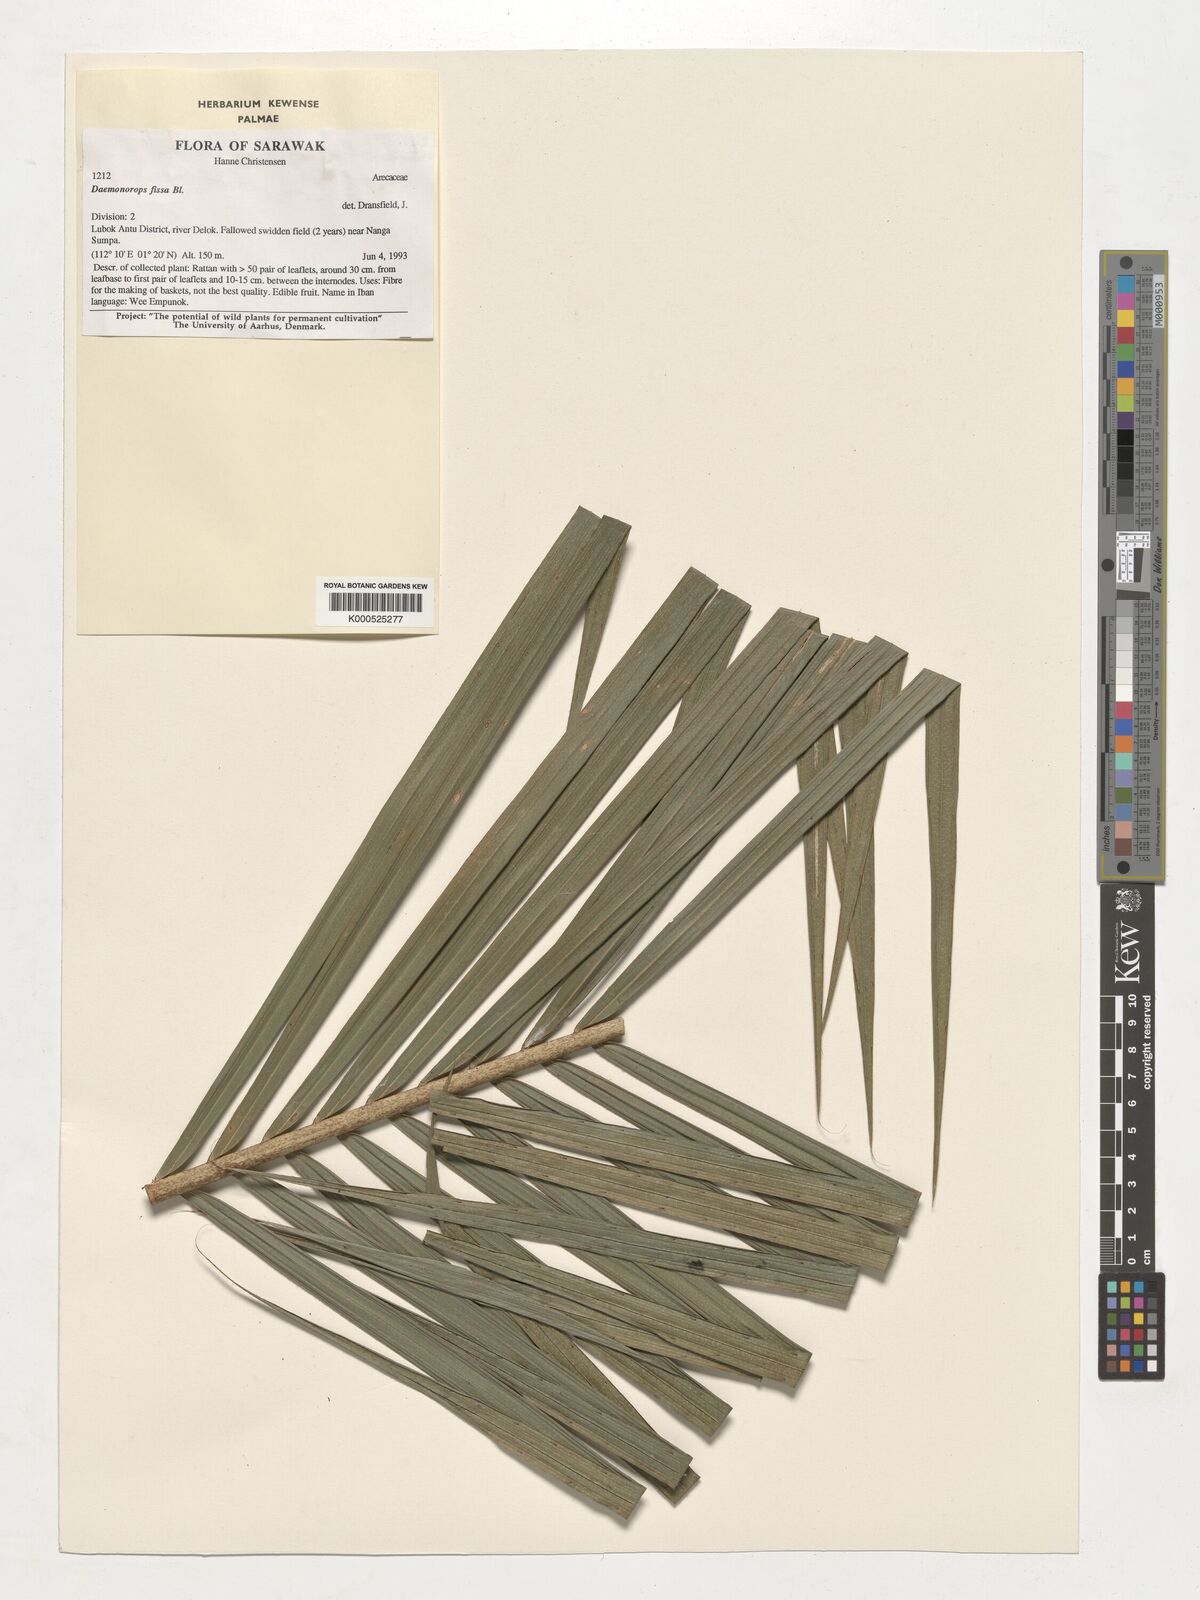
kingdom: Plantae
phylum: Tracheophyta
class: Liliopsida
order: Arecales
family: Arecaceae
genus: Calamus
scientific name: Calamus melanochaetes
